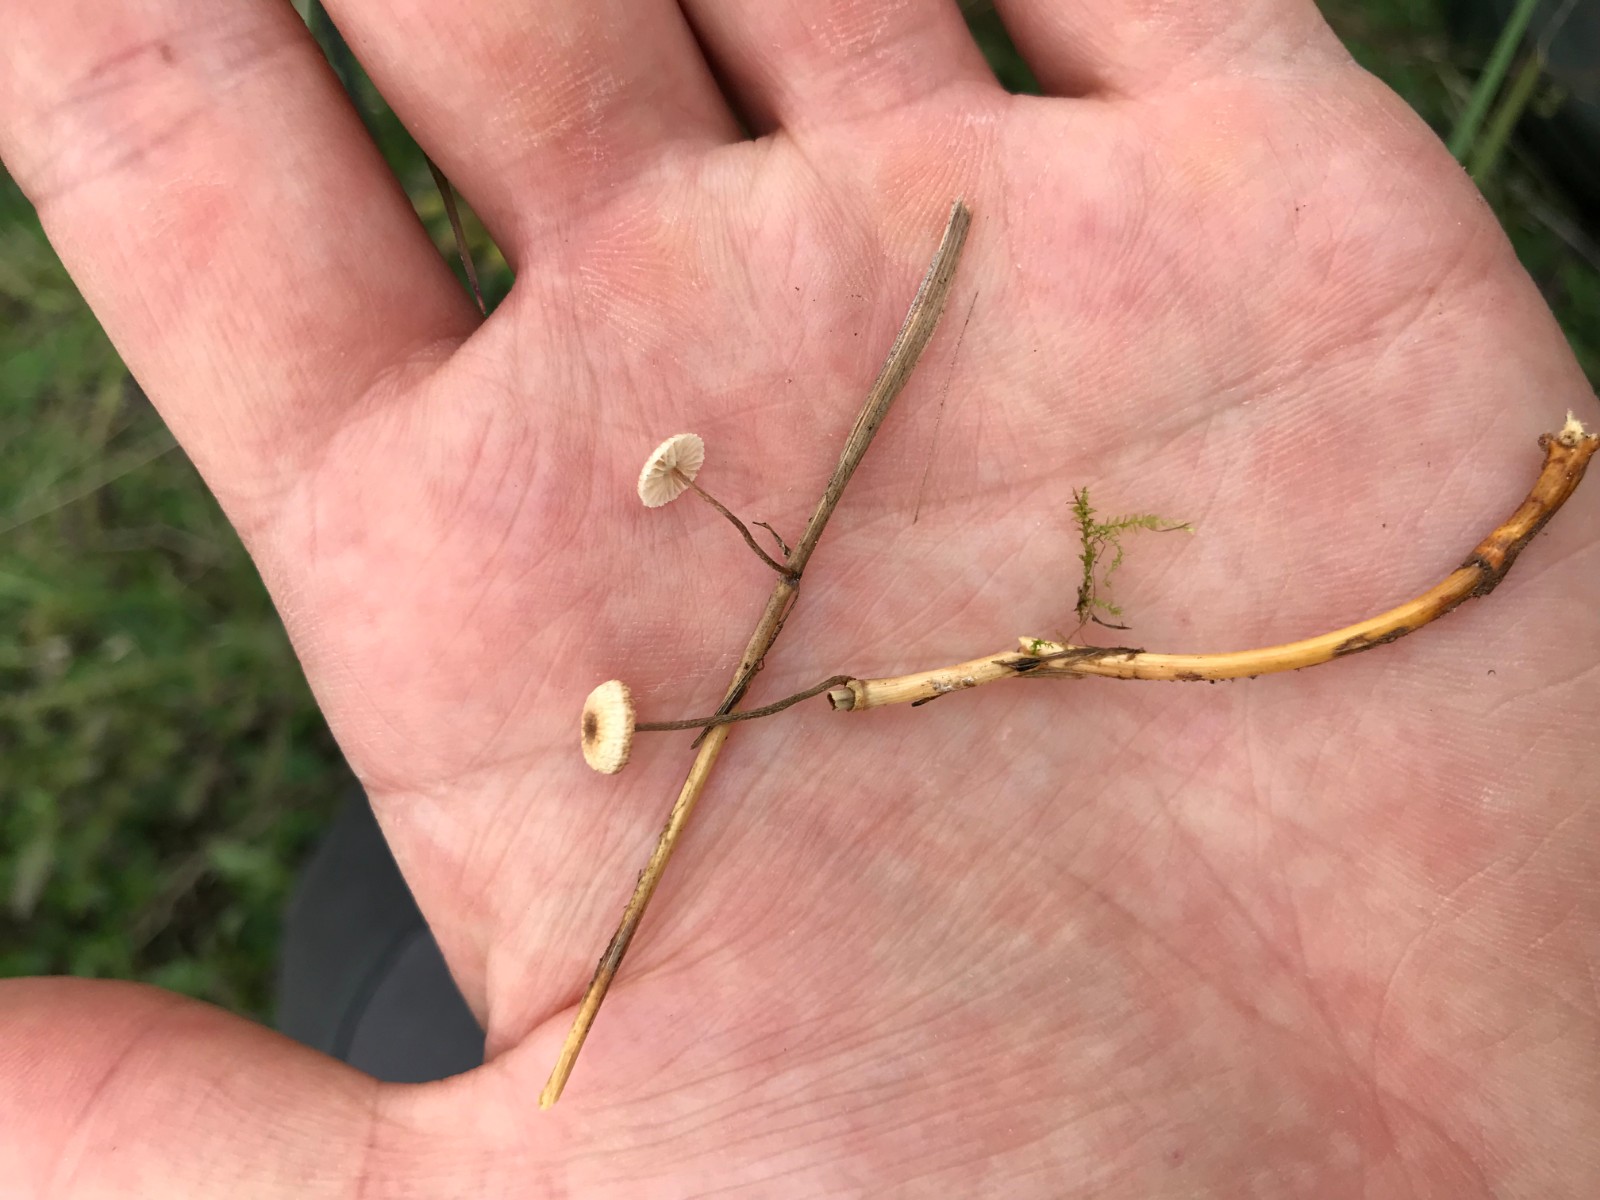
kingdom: Fungi
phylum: Basidiomycota
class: Agaricomycetes
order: Agaricales
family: Marasmiaceae
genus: Crinipellis
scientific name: Crinipellis scabella
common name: børstefod
